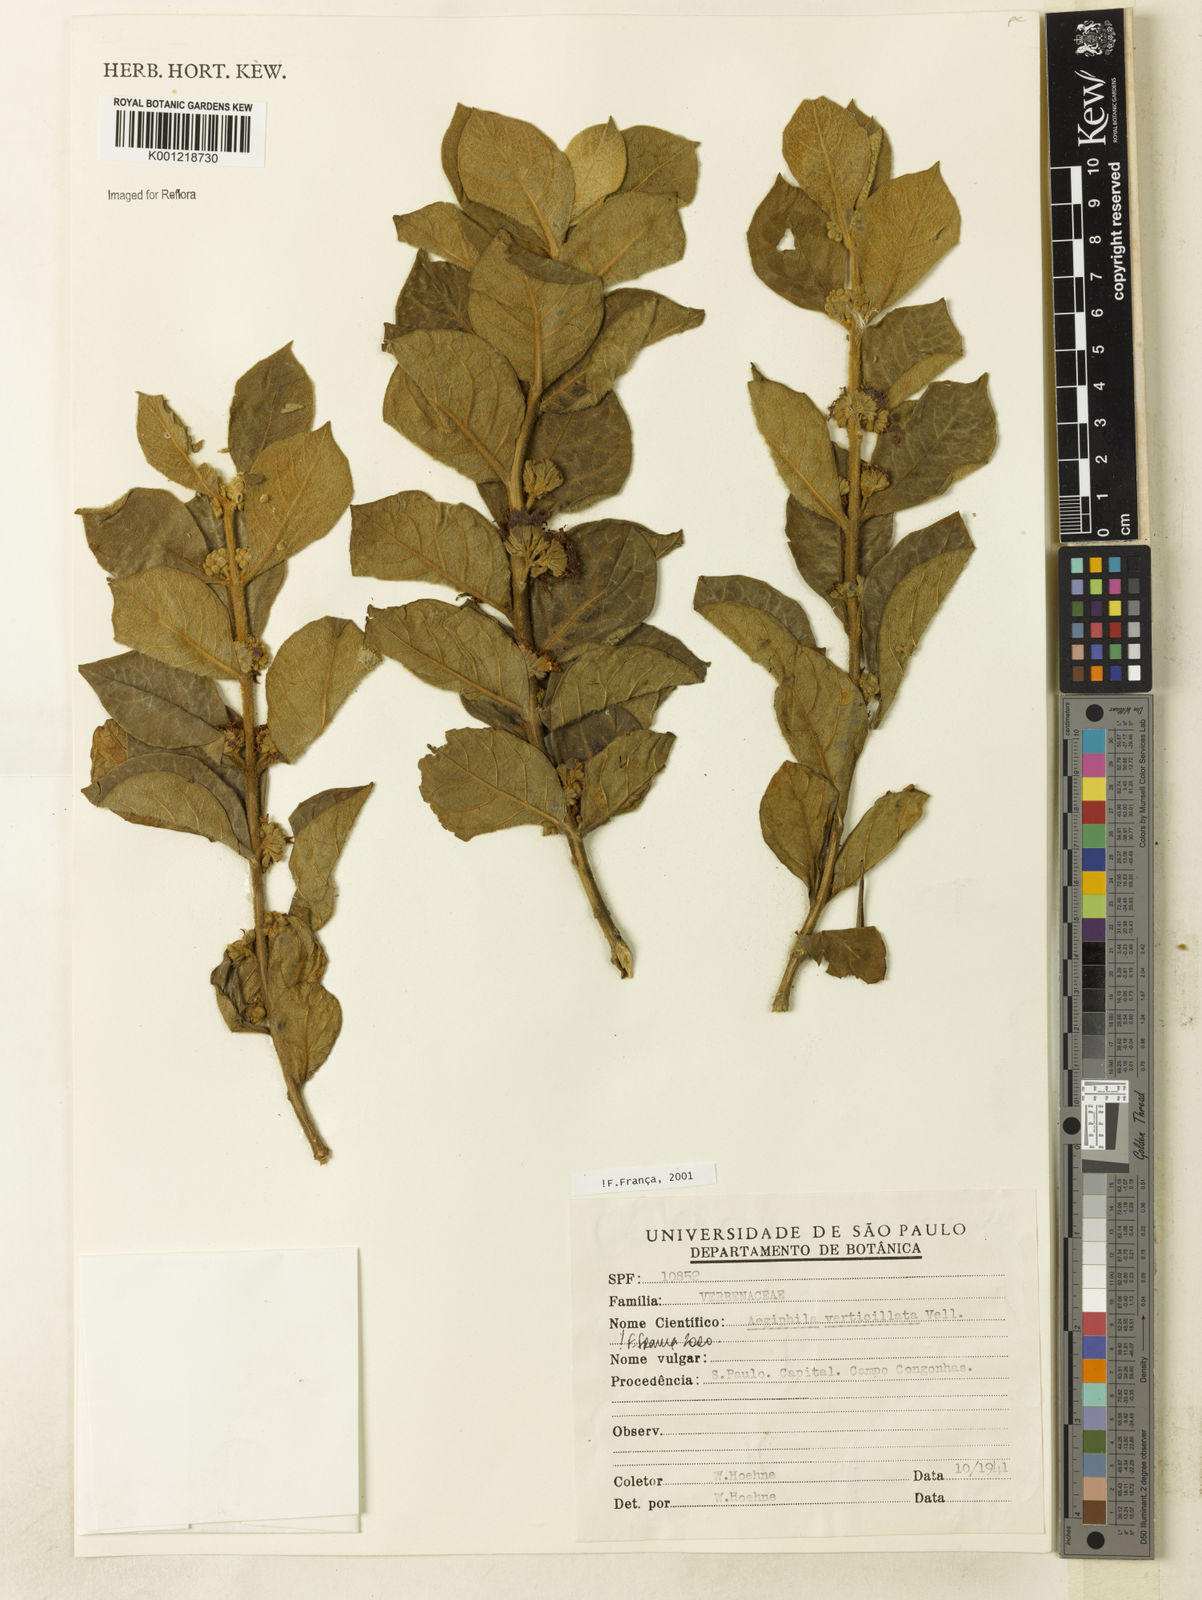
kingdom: Plantae
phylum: Tracheophyta
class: Magnoliopsida
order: Lamiales
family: Lamiaceae
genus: Aegiphila
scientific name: Aegiphila verticillata
